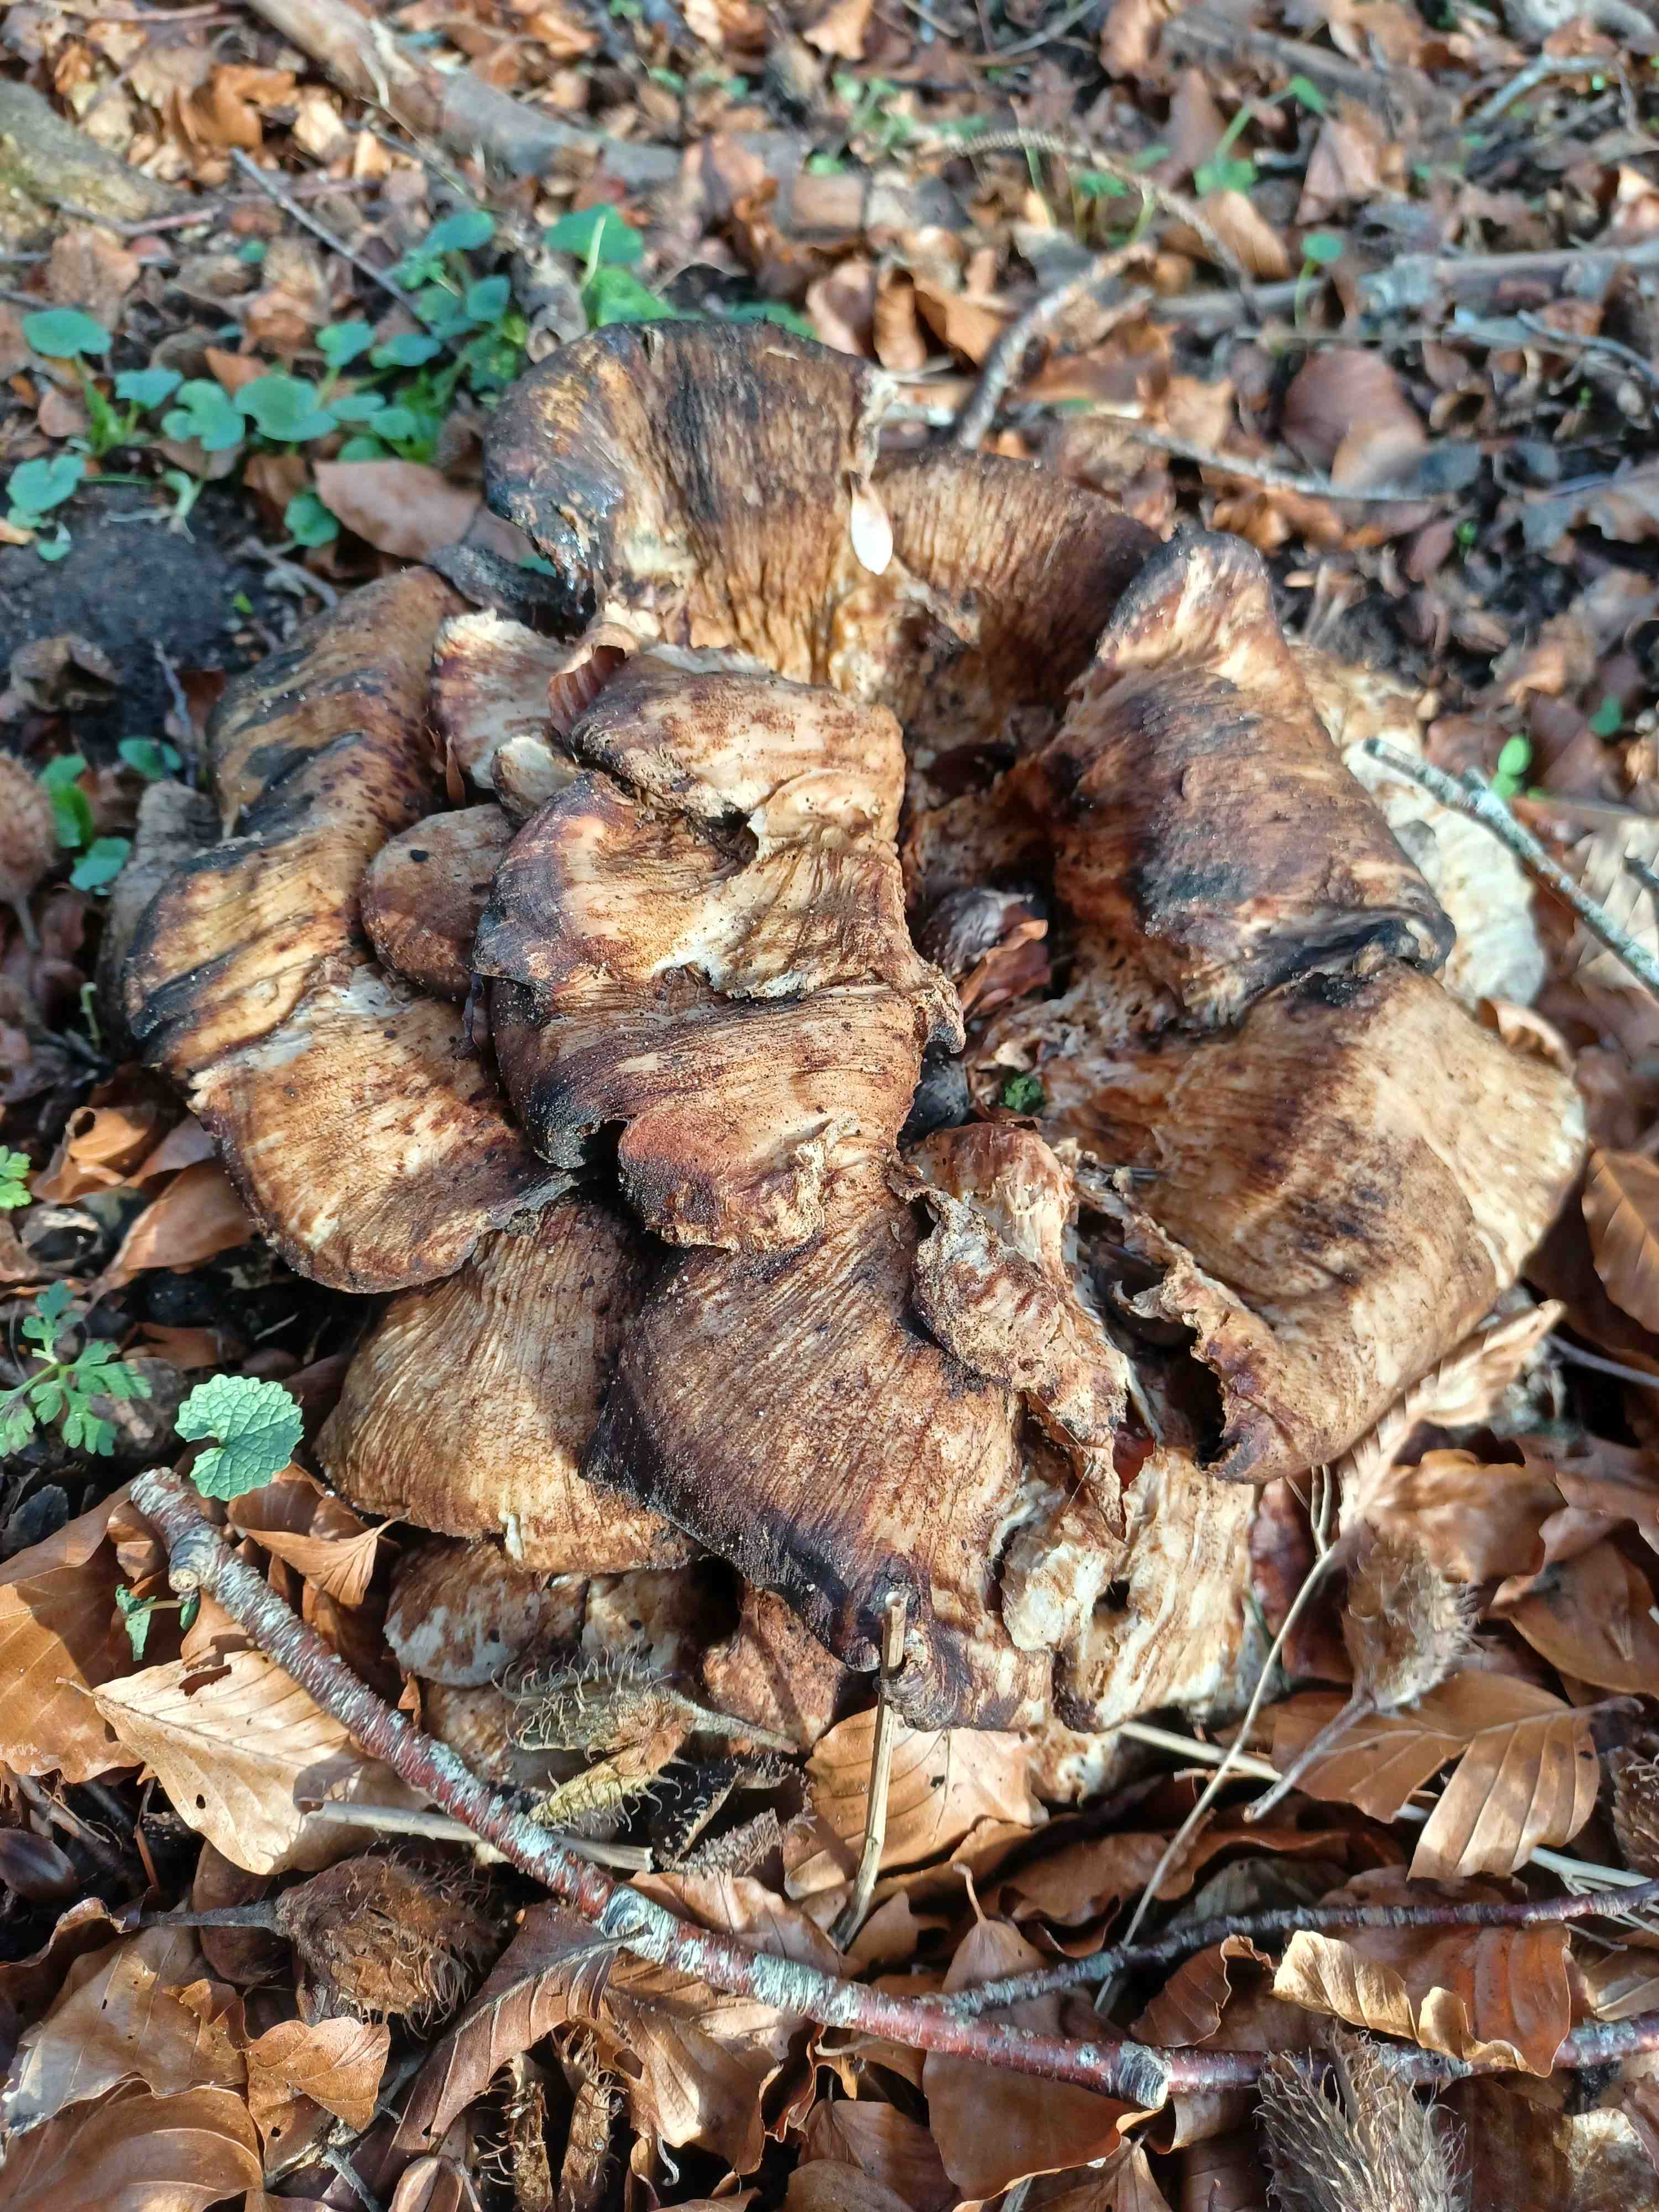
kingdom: Fungi
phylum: Basidiomycota
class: Agaricomycetes
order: Polyporales
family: Meripilaceae
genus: Meripilus
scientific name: Meripilus giganteus
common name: kæmpeporesvamp
